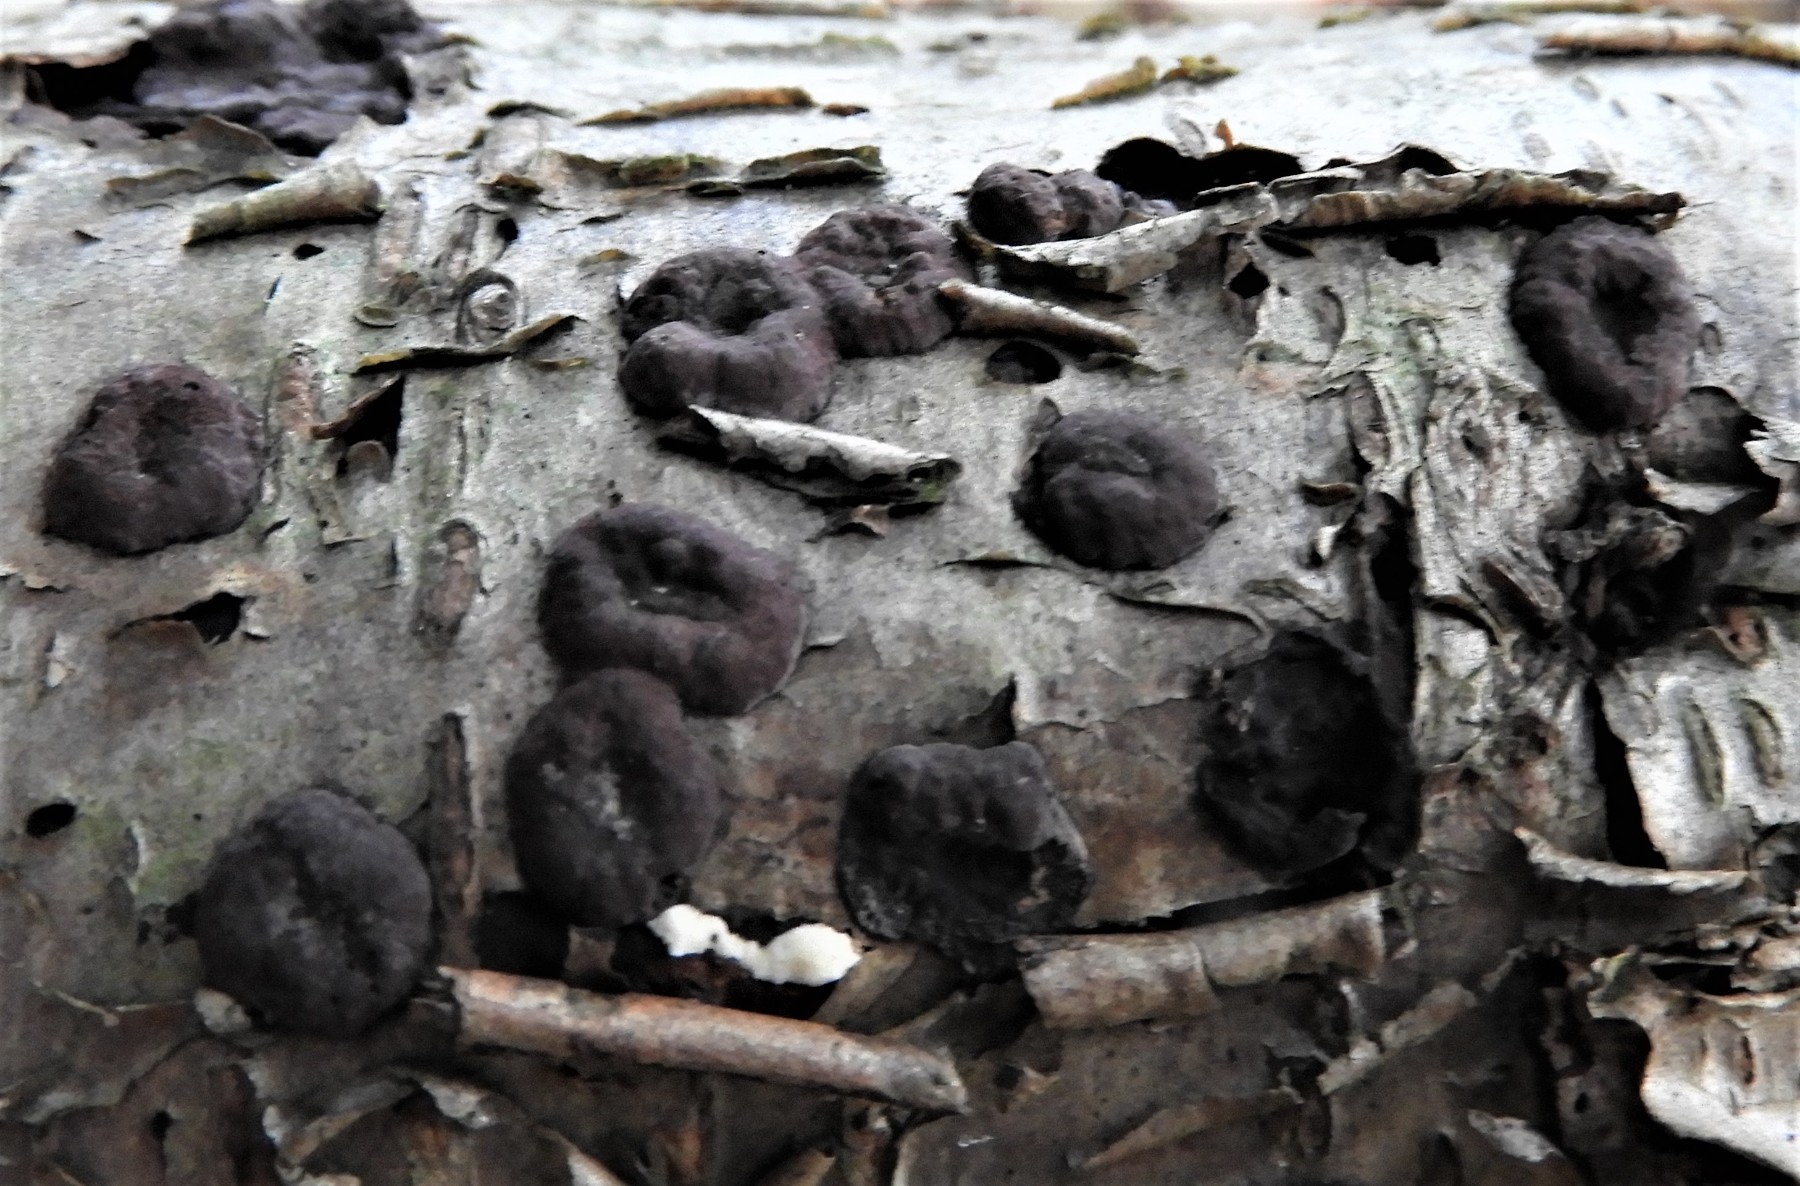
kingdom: Fungi
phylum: Ascomycota
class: Sordariomycetes
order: Xylariales
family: Hypoxylaceae
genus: Hypoxylon
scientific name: Hypoxylon fuscum
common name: kegleformet kulbær
